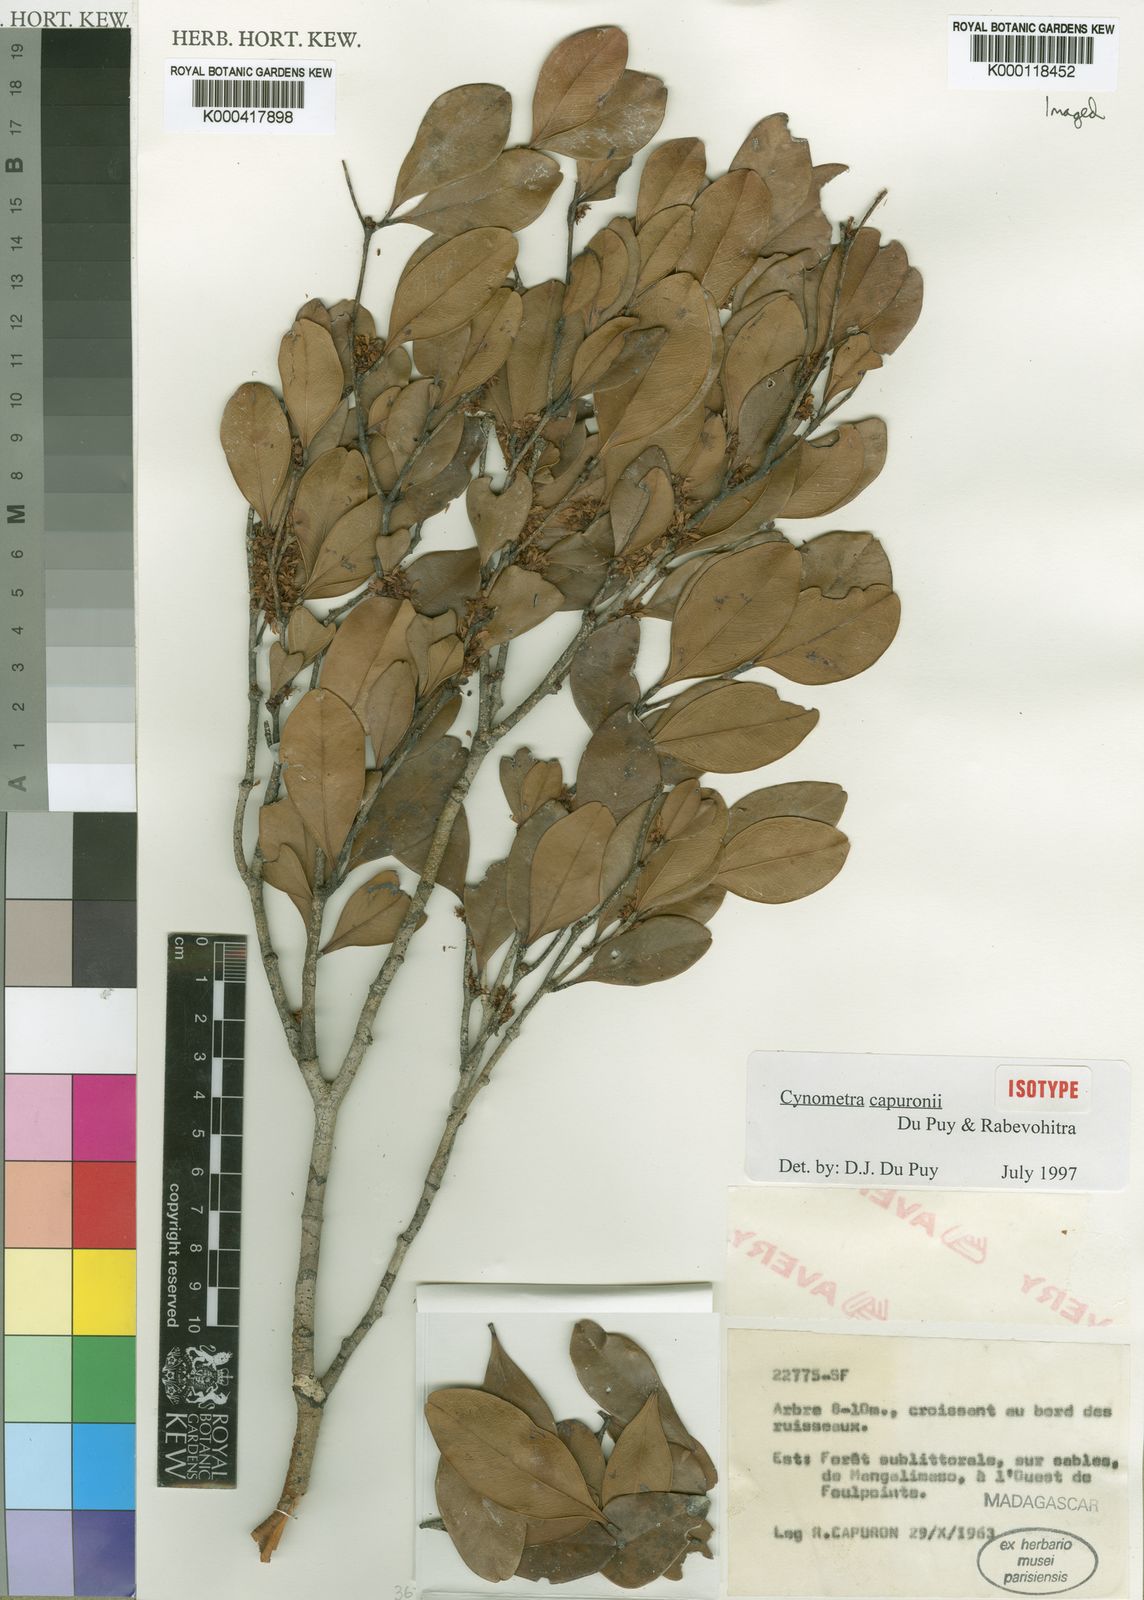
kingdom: Plantae
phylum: Tracheophyta
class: Magnoliopsida
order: Fabales
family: Fabaceae
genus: Cynometra
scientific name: Cynometra capuronii
